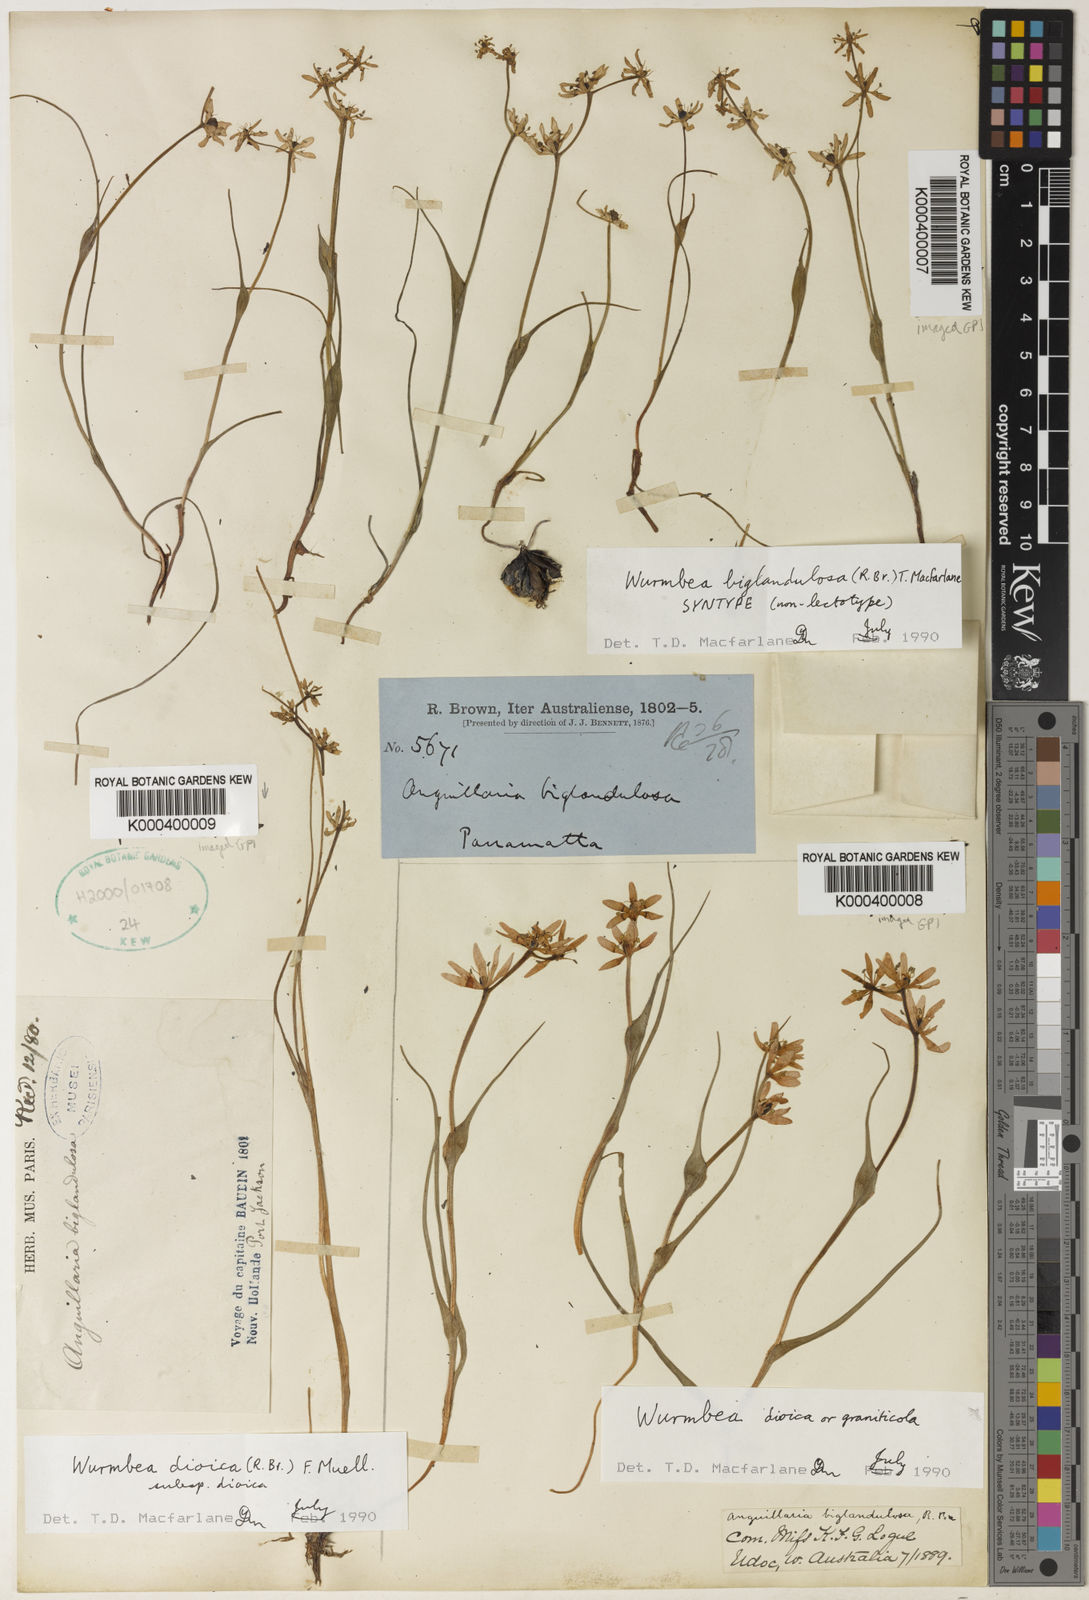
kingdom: Plantae
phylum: Tracheophyta
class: Liliopsida
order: Liliales
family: Colchicaceae
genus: Wurmbea
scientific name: Wurmbea biglandulosa
